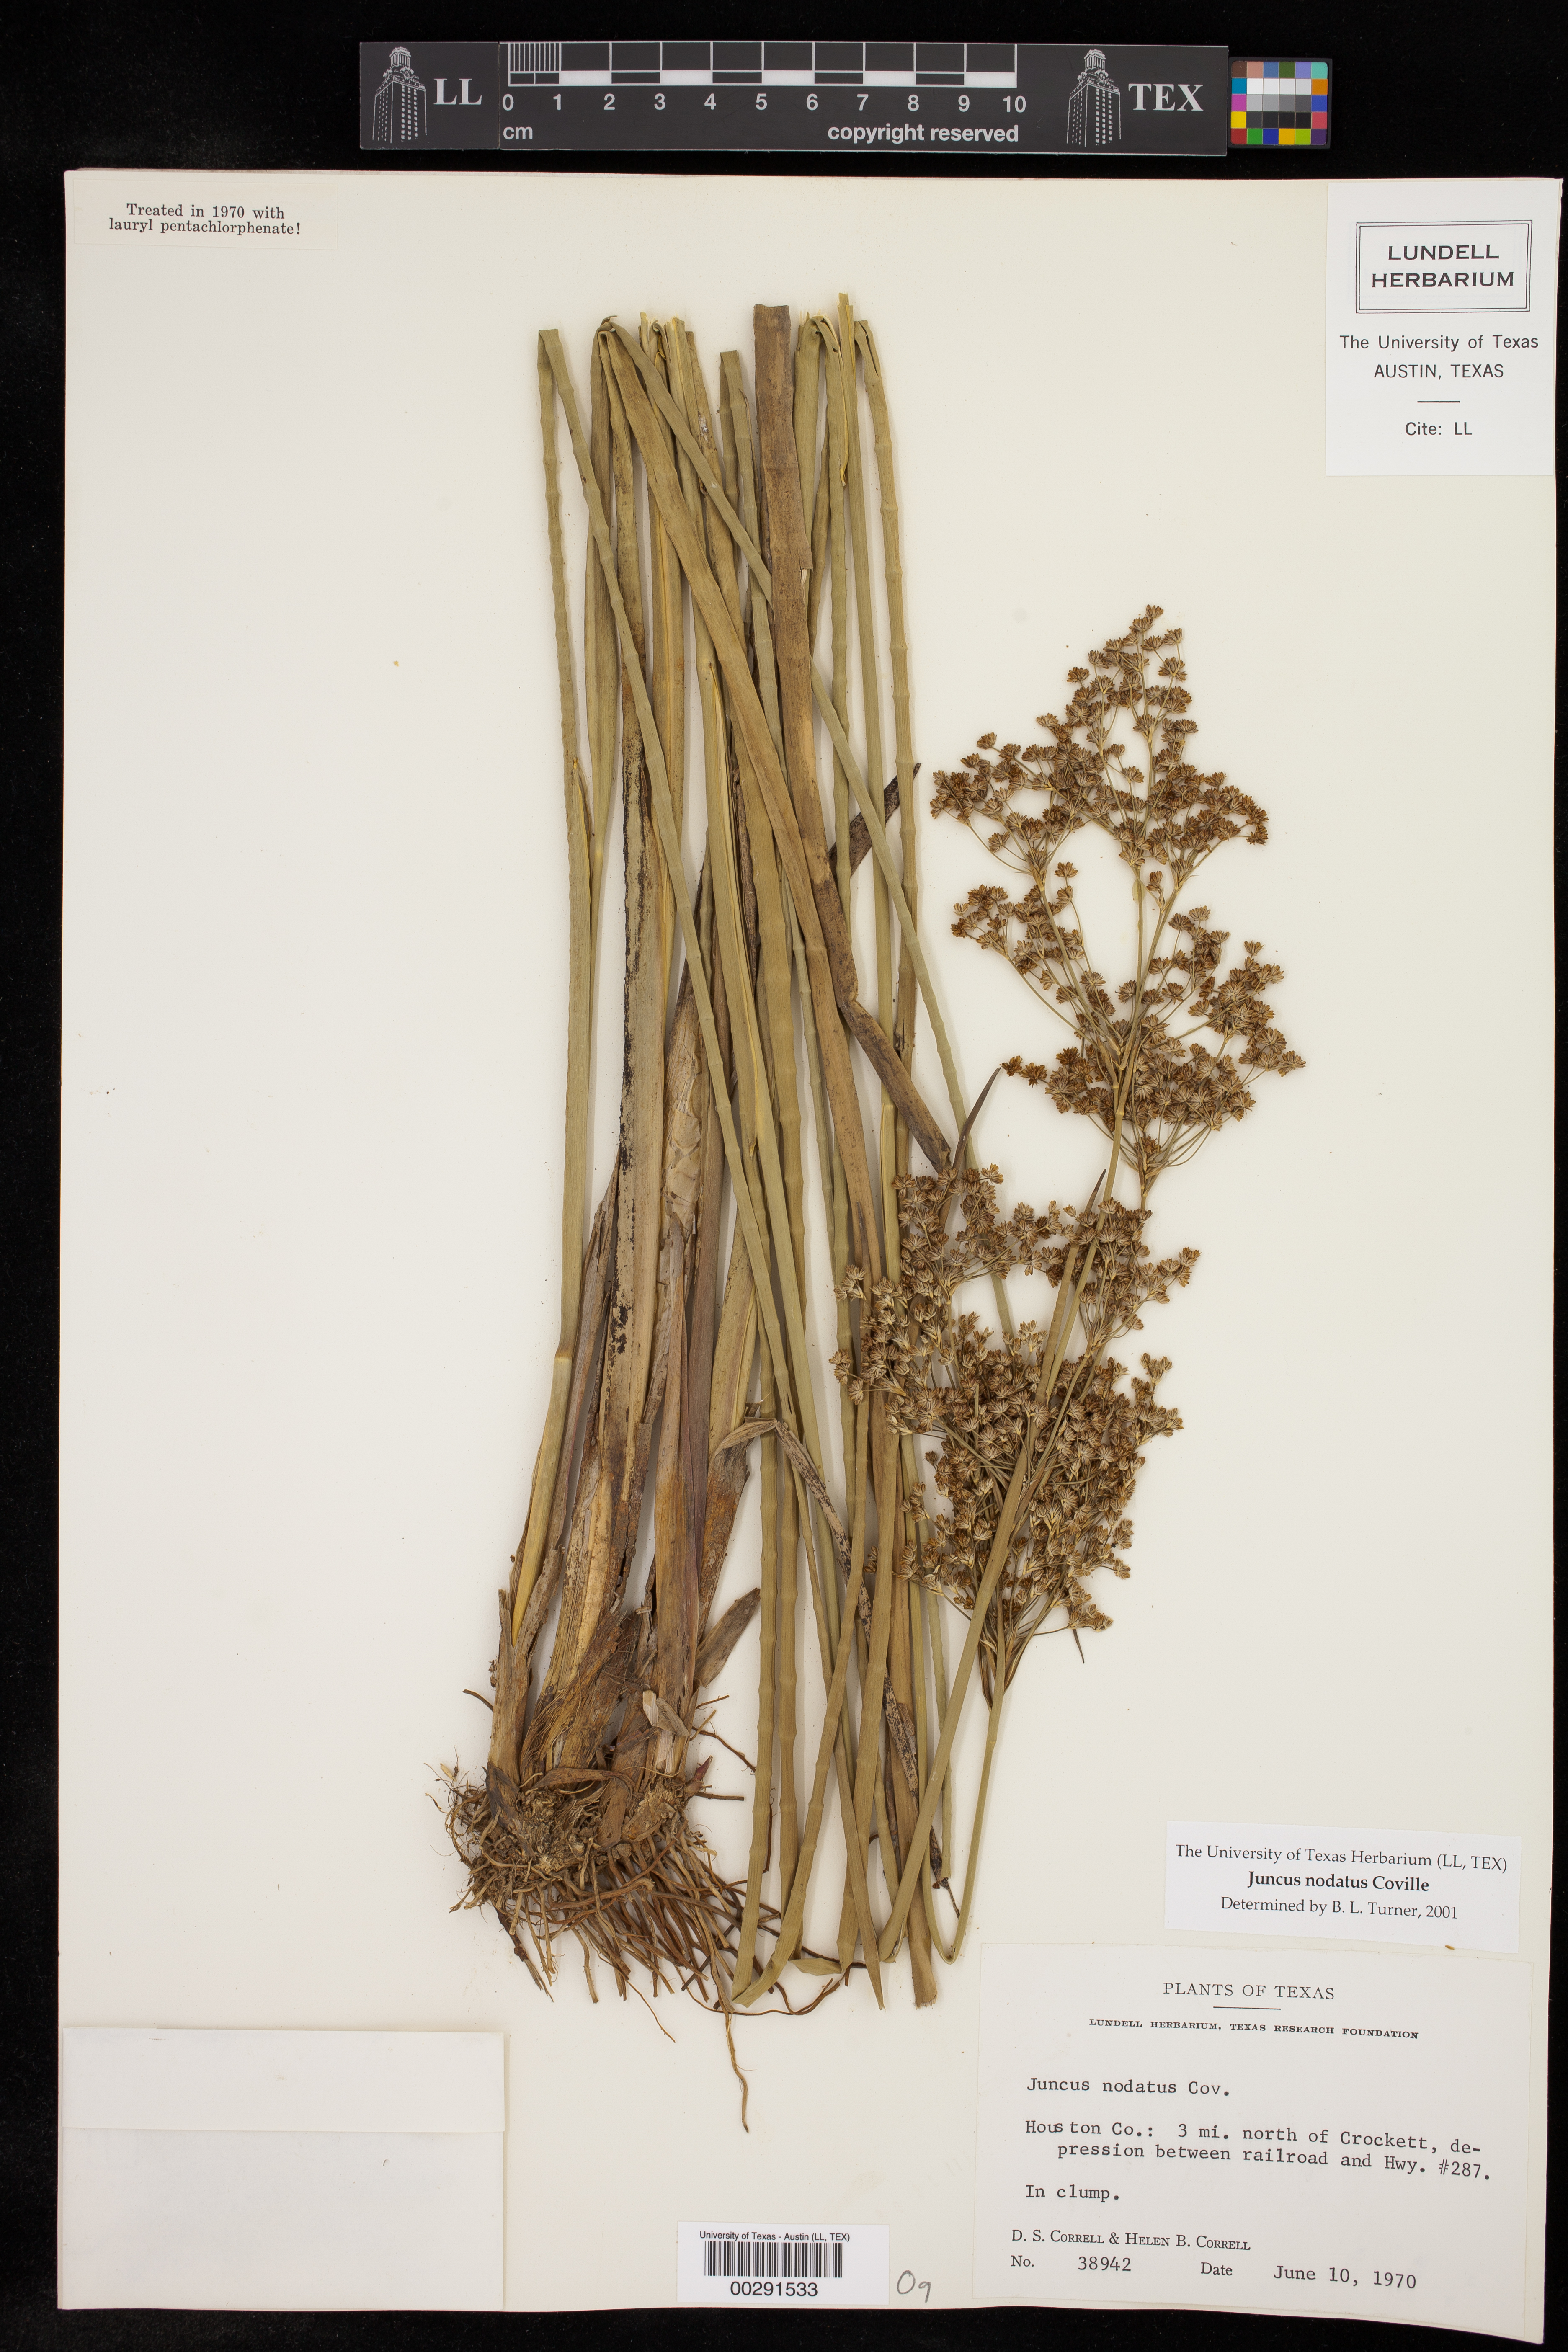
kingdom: Plantae
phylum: Tracheophyta
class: Liliopsida
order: Poales
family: Juncaceae
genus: Juncus
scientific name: Juncus nodatus
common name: Stout rush
